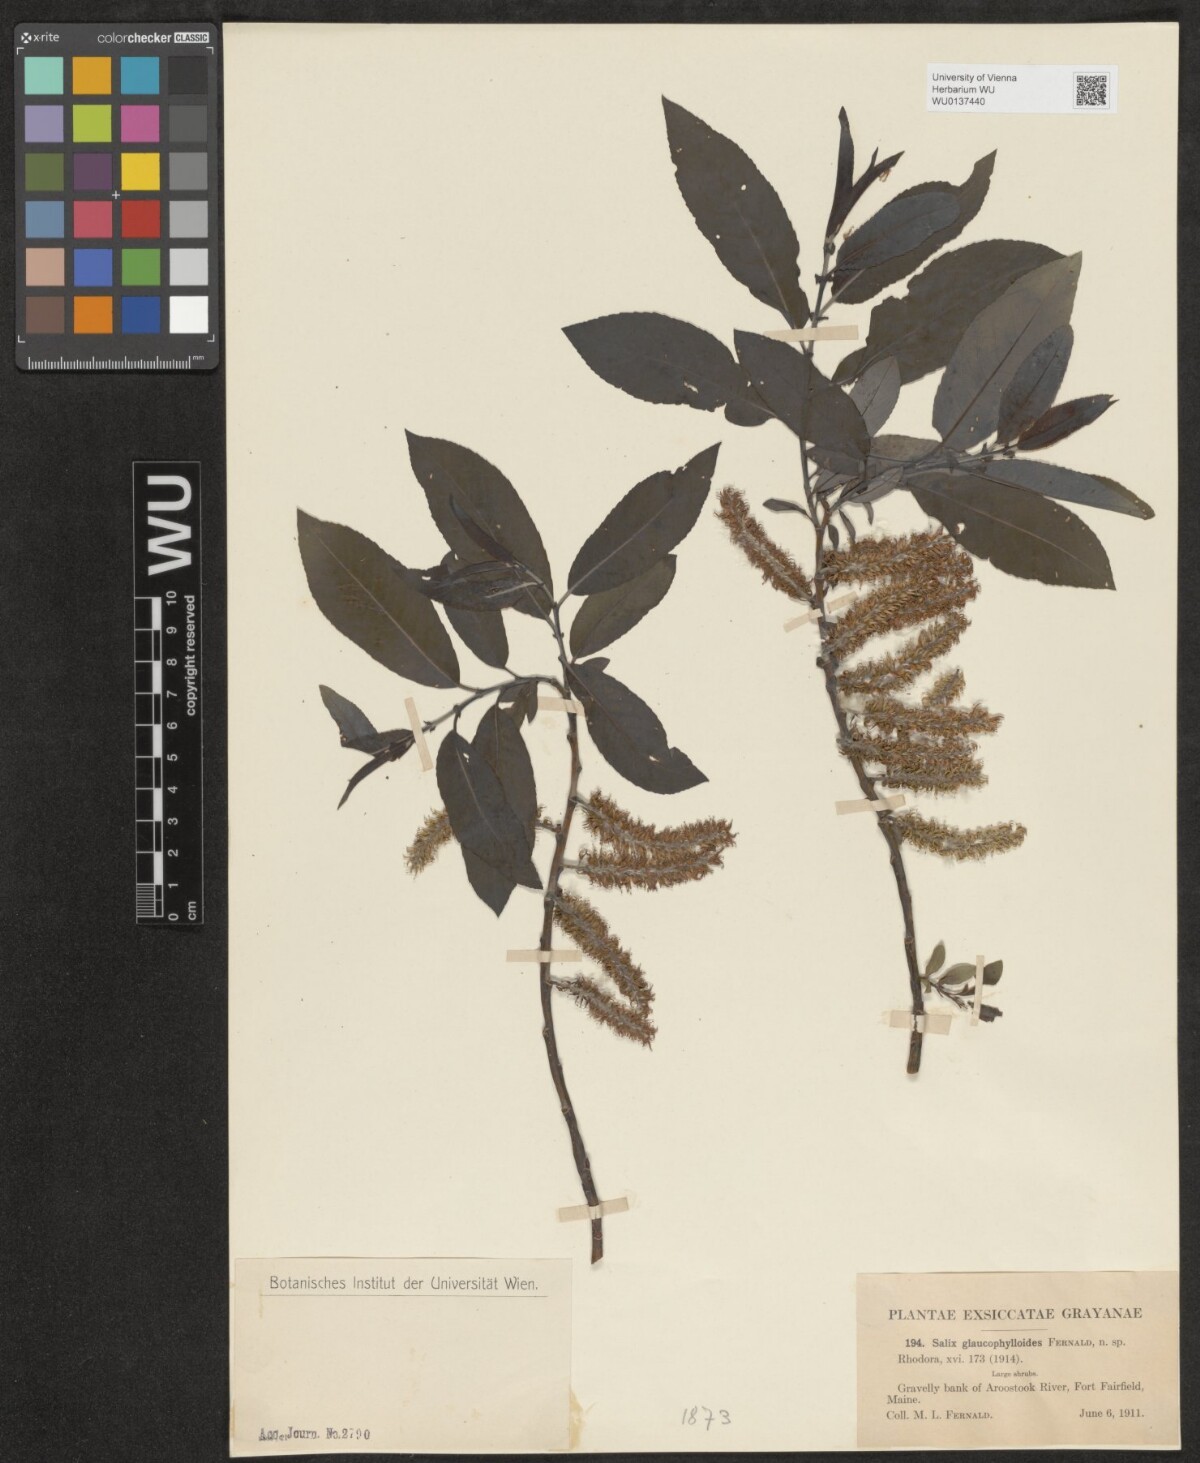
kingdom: Plantae
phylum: Tracheophyta
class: Magnoliopsida
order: Malpighiales
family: Salicaceae
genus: Salix
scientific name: Salix myricoides
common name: Bayberry willow
